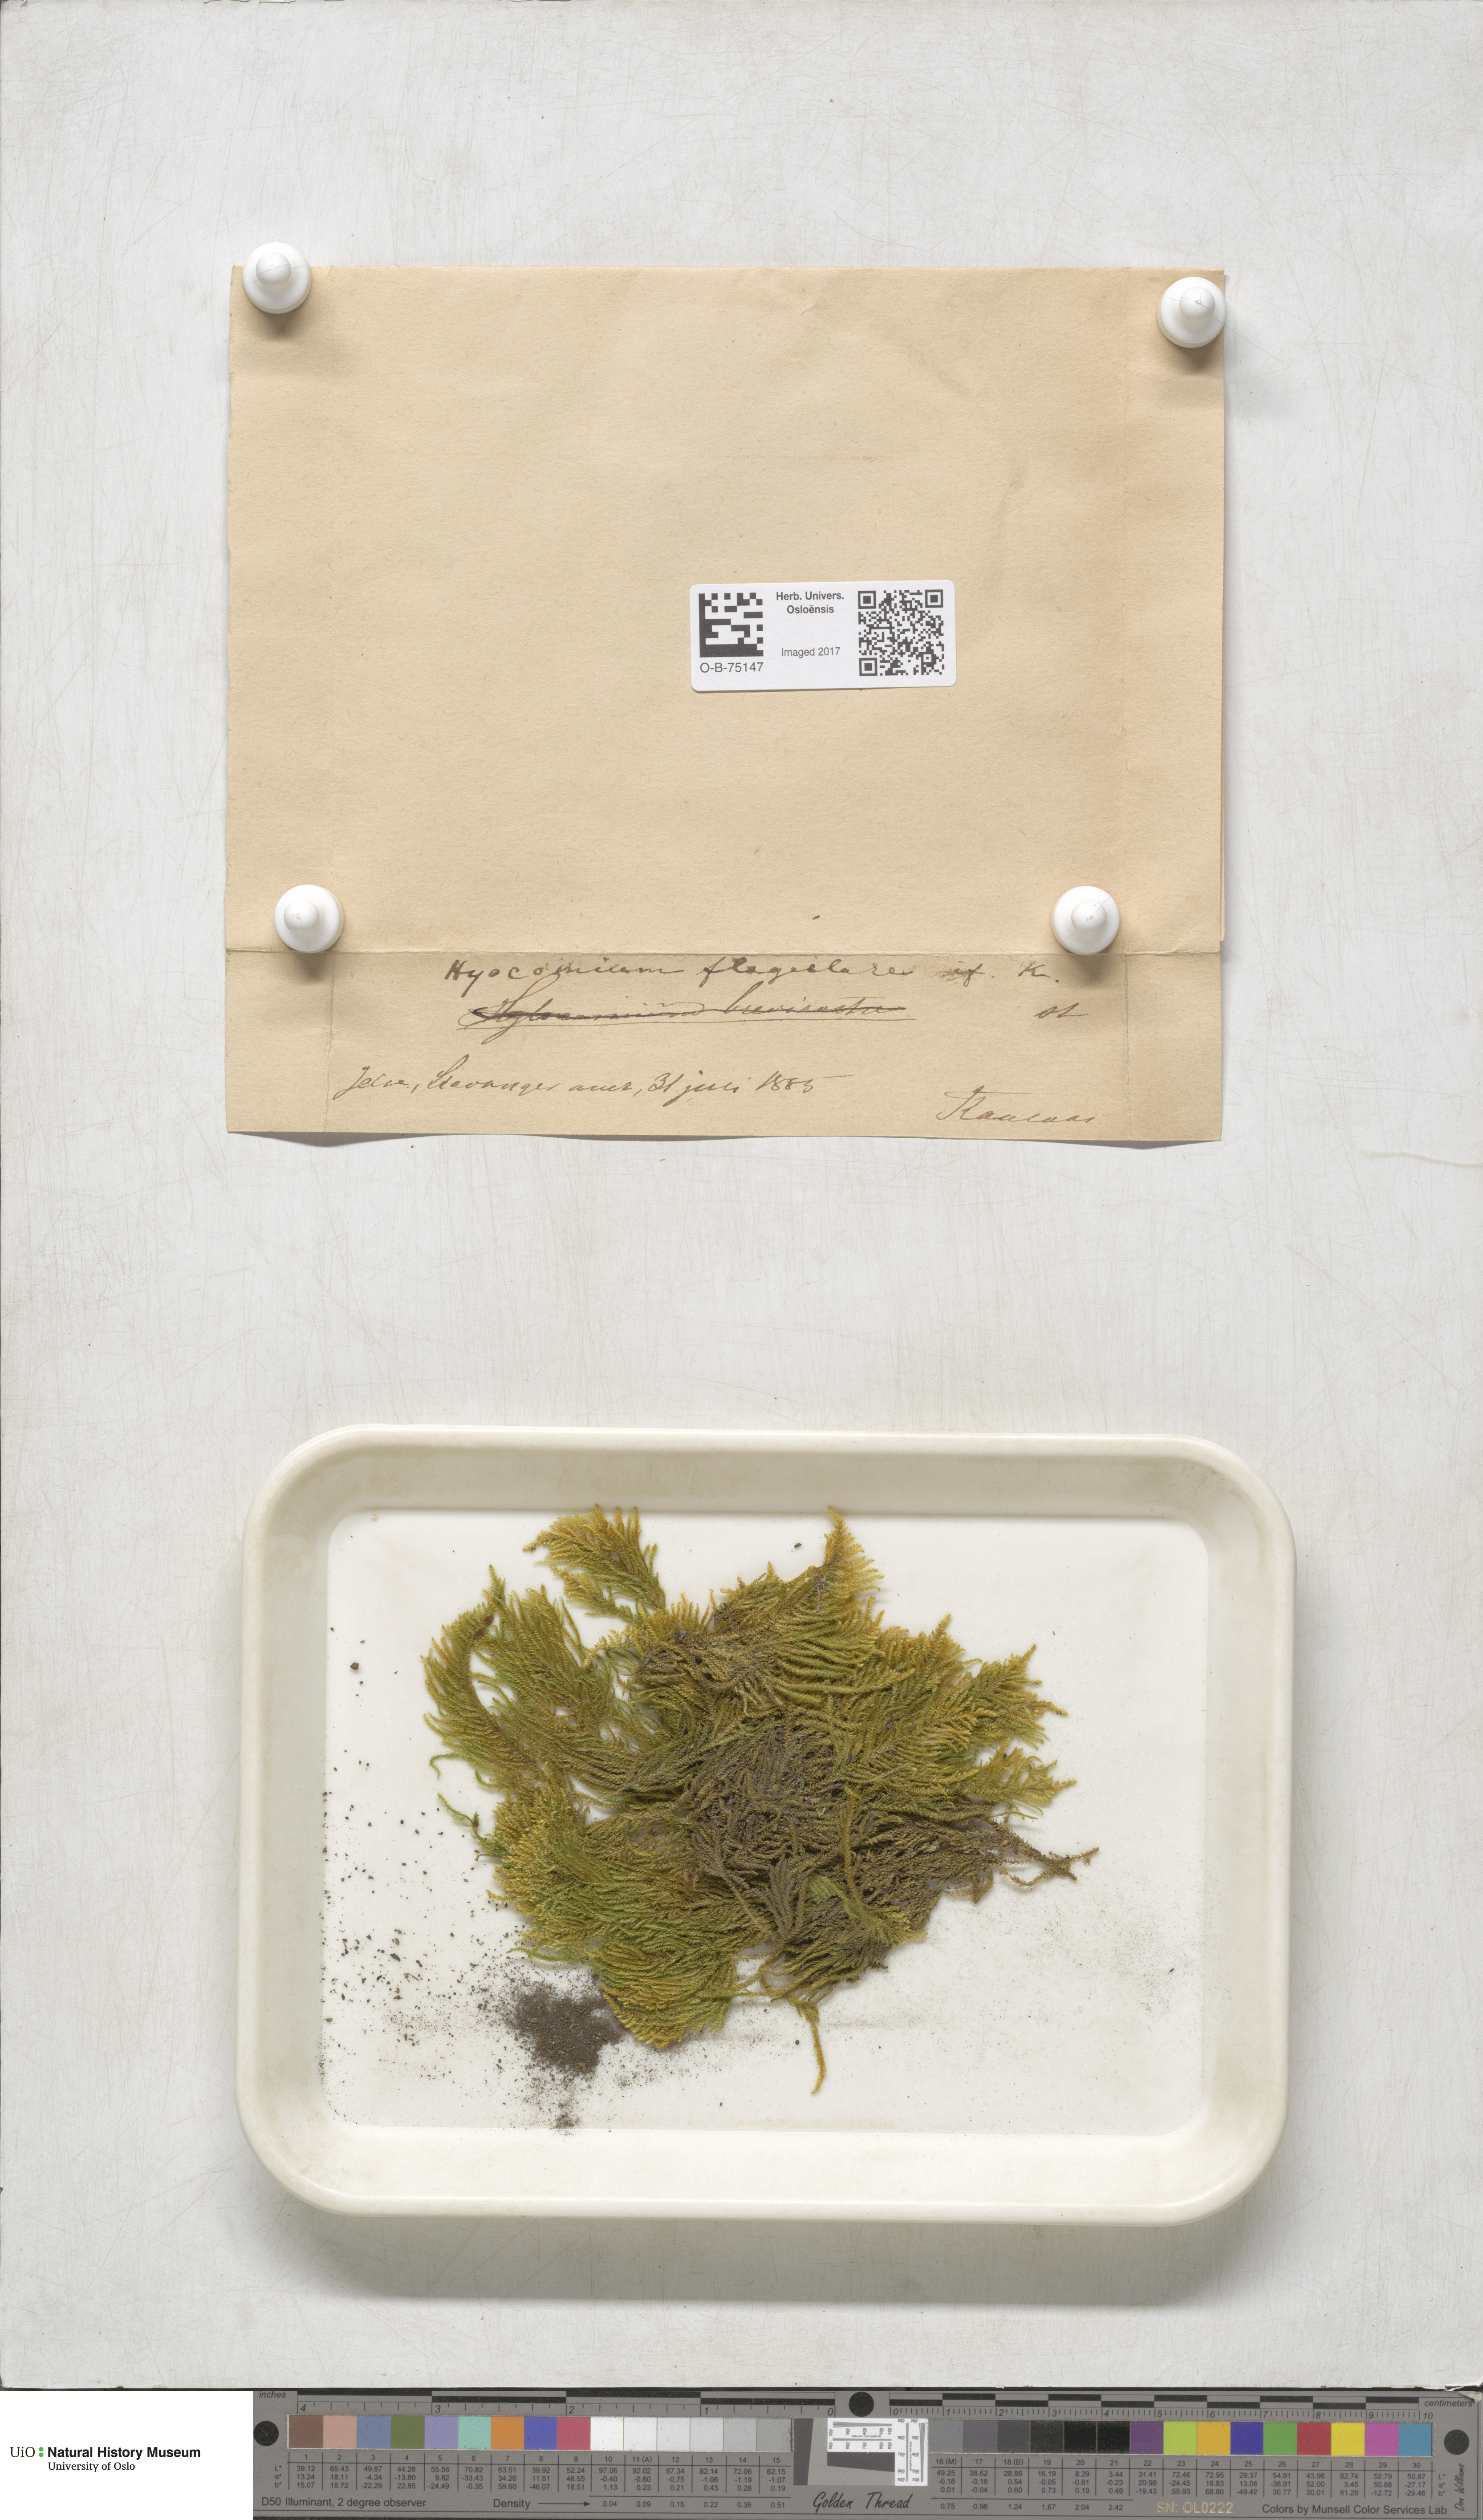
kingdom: Plantae
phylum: Bryophyta
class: Bryopsida
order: Hypnales
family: Myuriaceae
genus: Hyocomium
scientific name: Hyocomium armoricum
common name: Flagellate feather-moss
